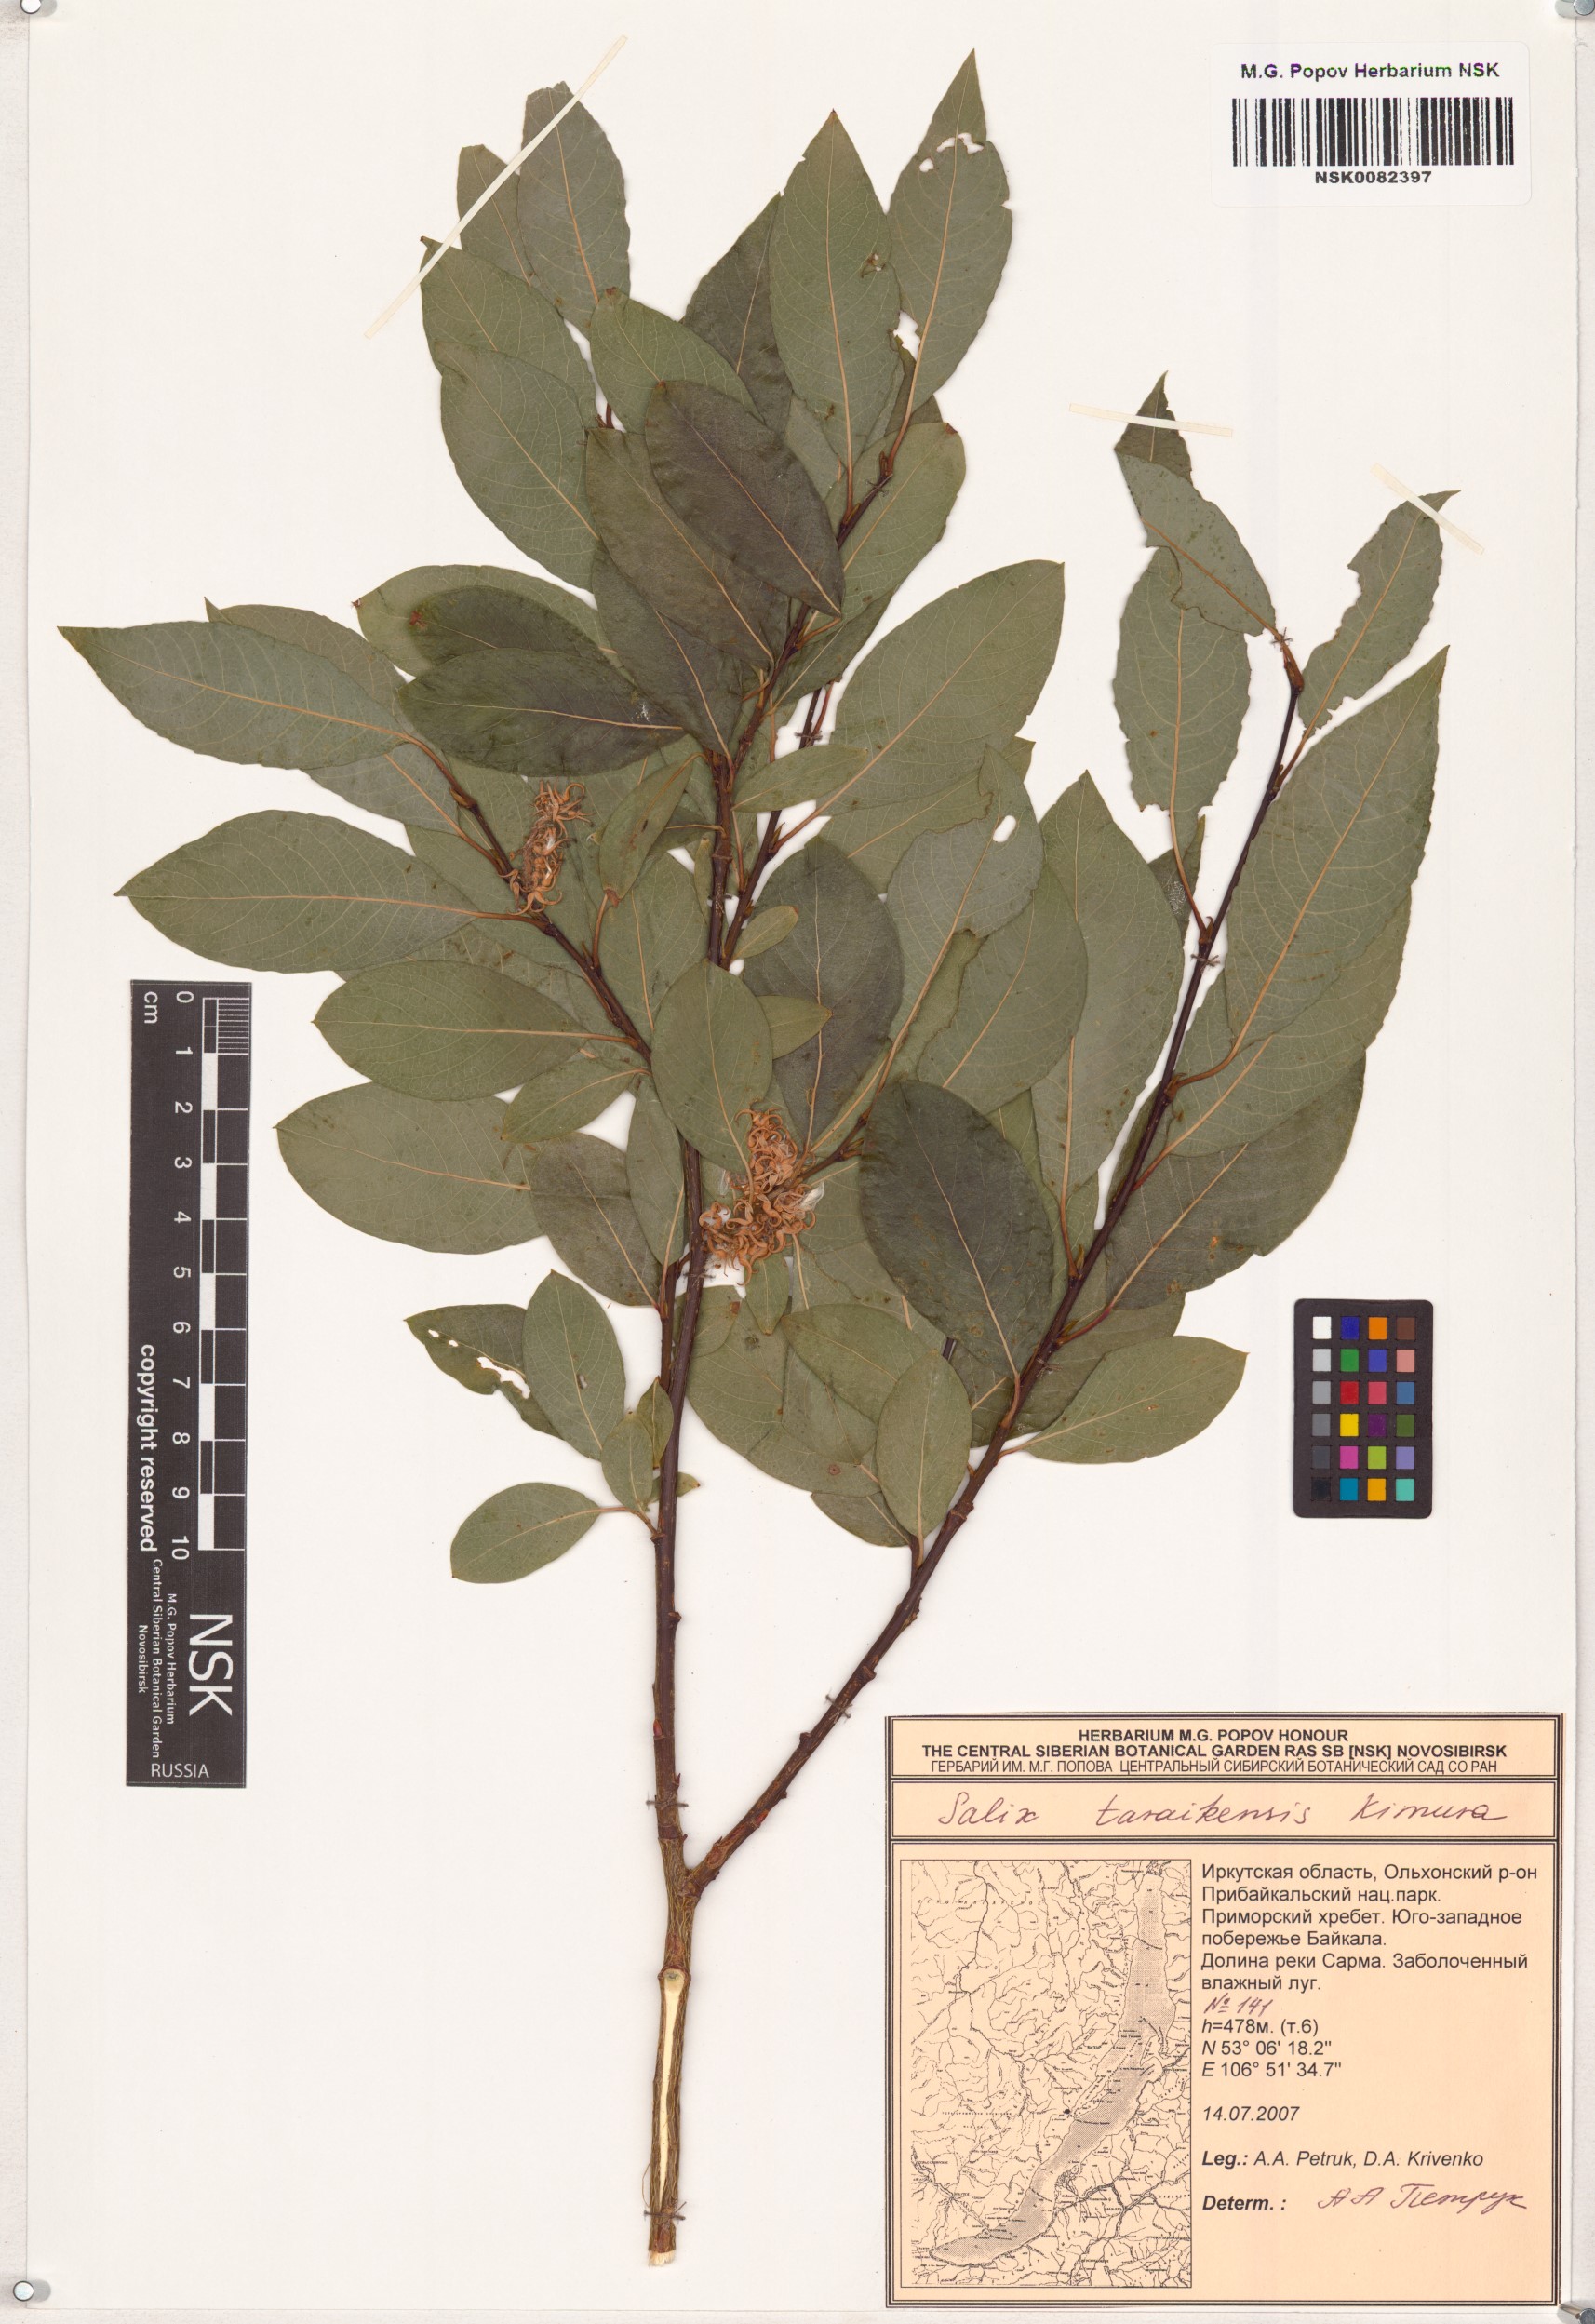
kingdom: Plantae
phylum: Tracheophyta
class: Magnoliopsida
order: Malpighiales
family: Salicaceae
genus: Salix
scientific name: Salix taraikensis
